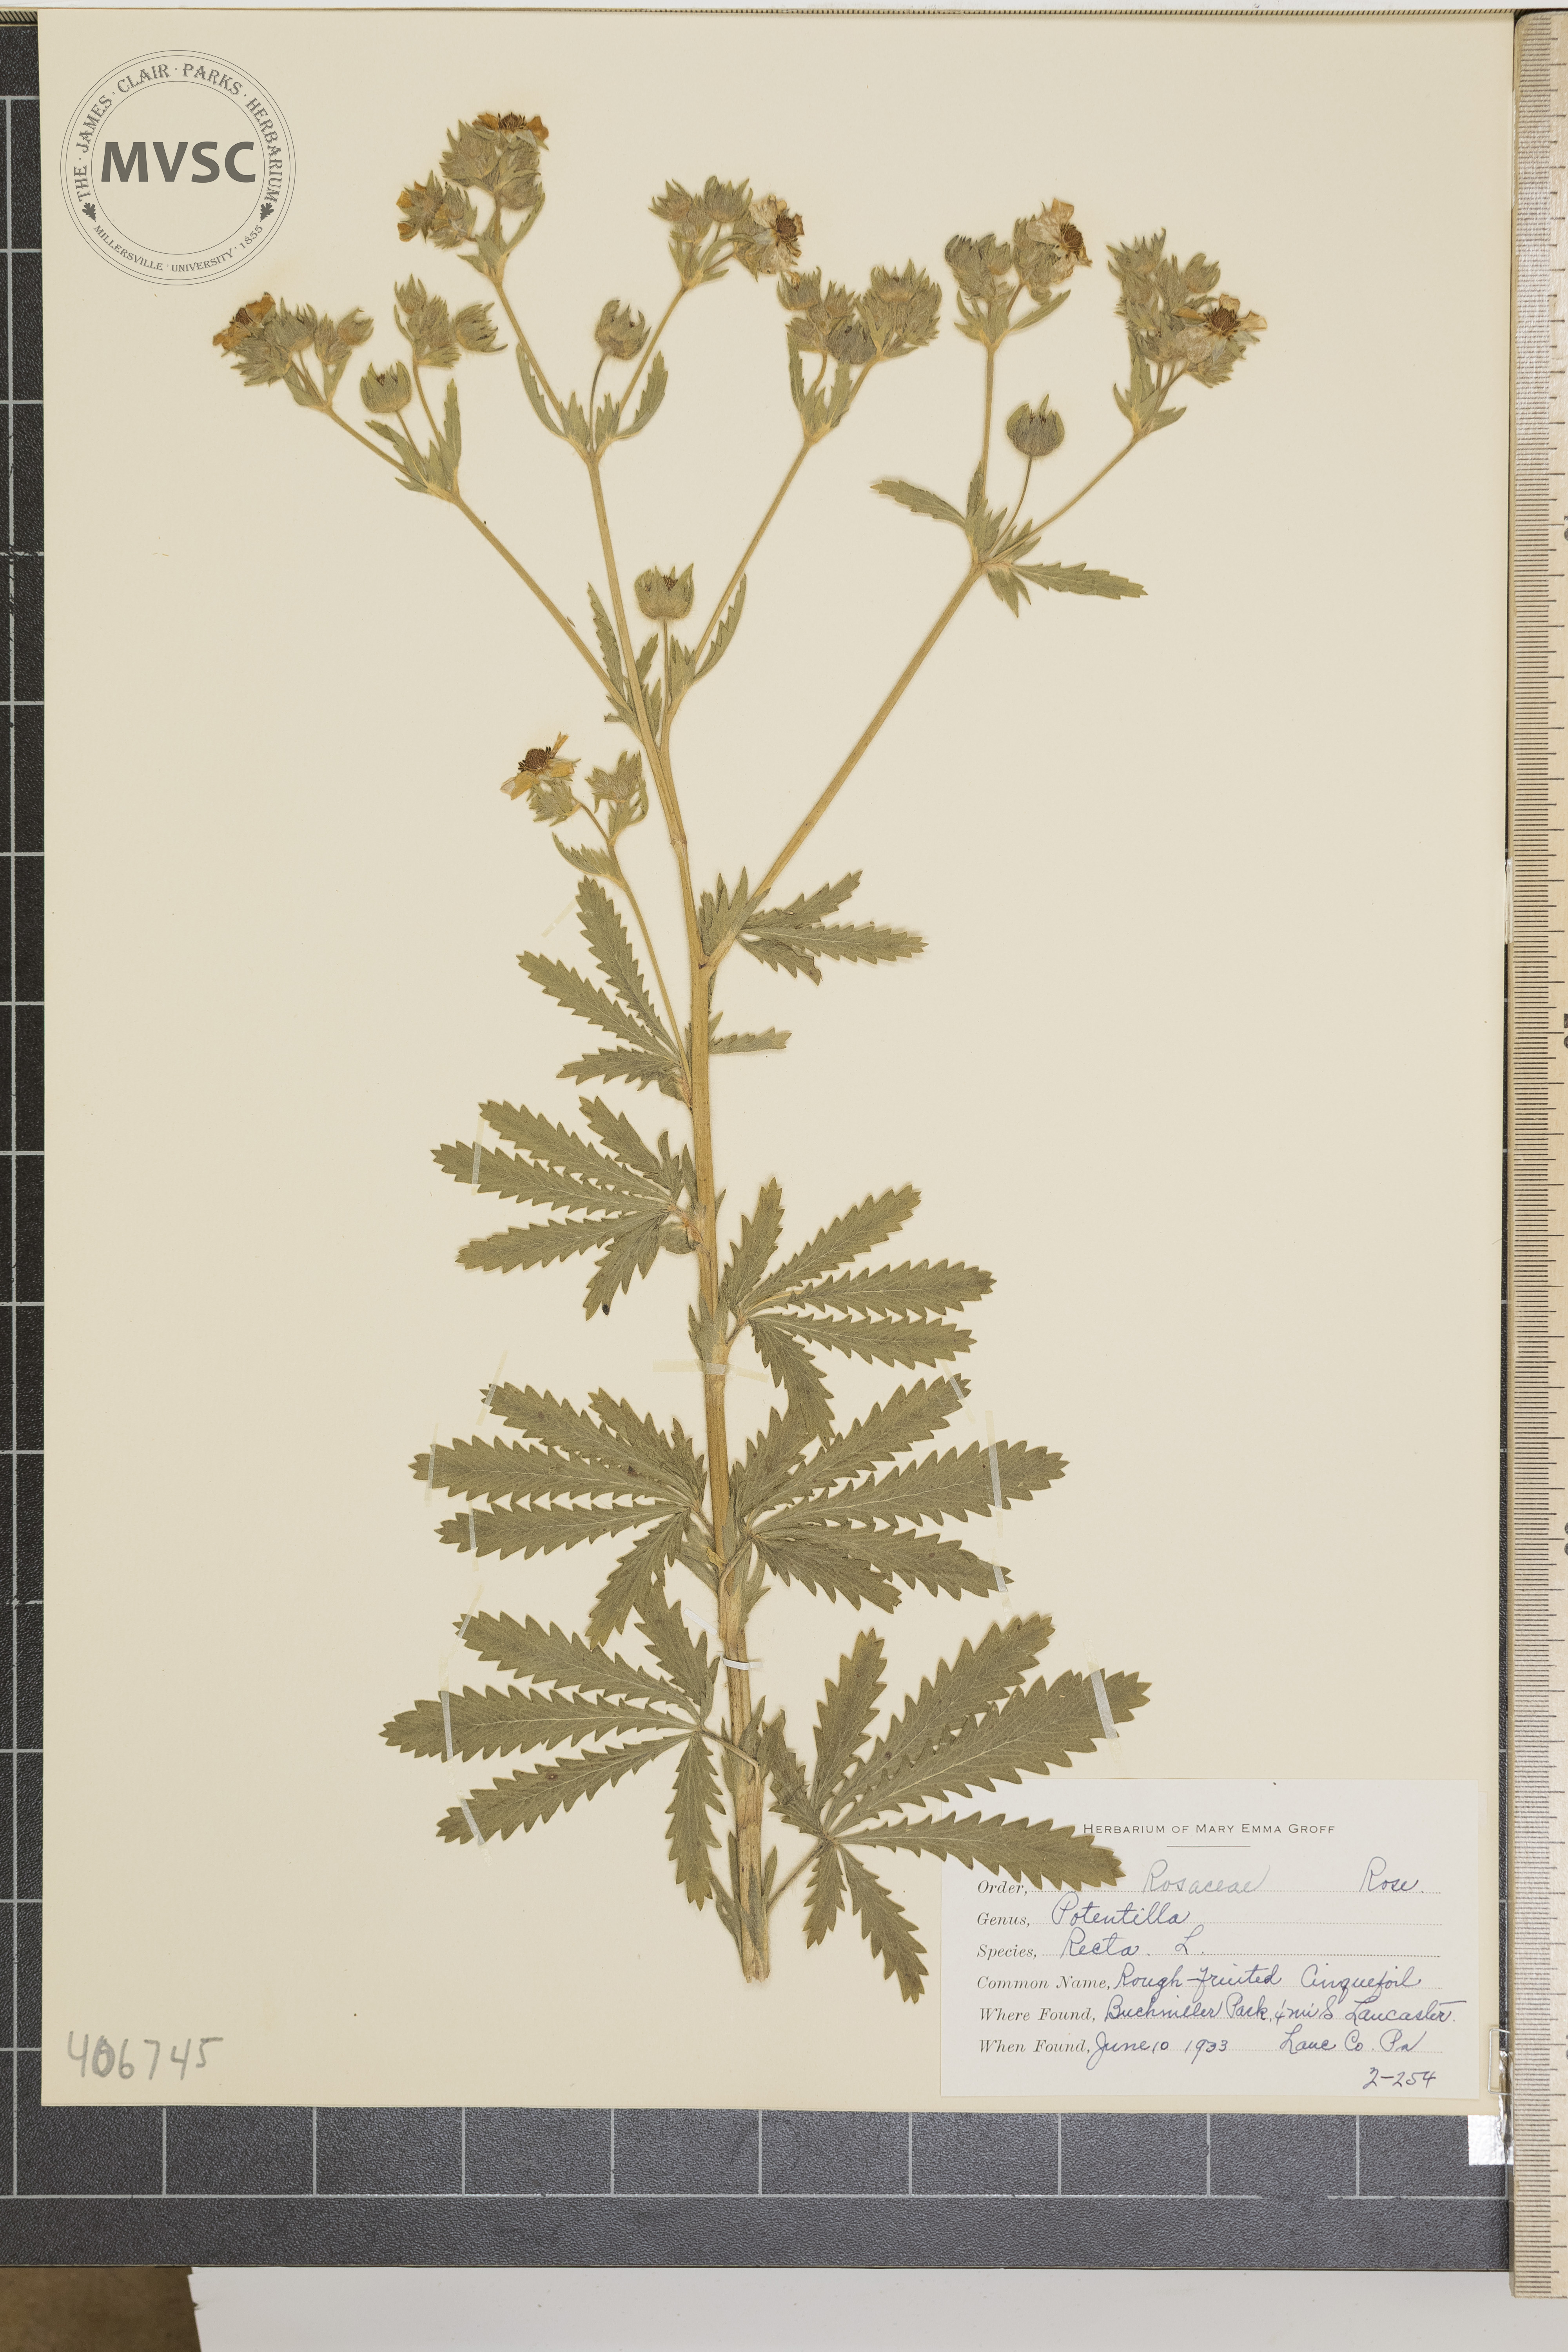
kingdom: Plantae
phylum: Tracheophyta
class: Magnoliopsida
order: Rosales
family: Rosaceae
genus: Potentilla
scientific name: Potentilla recta
